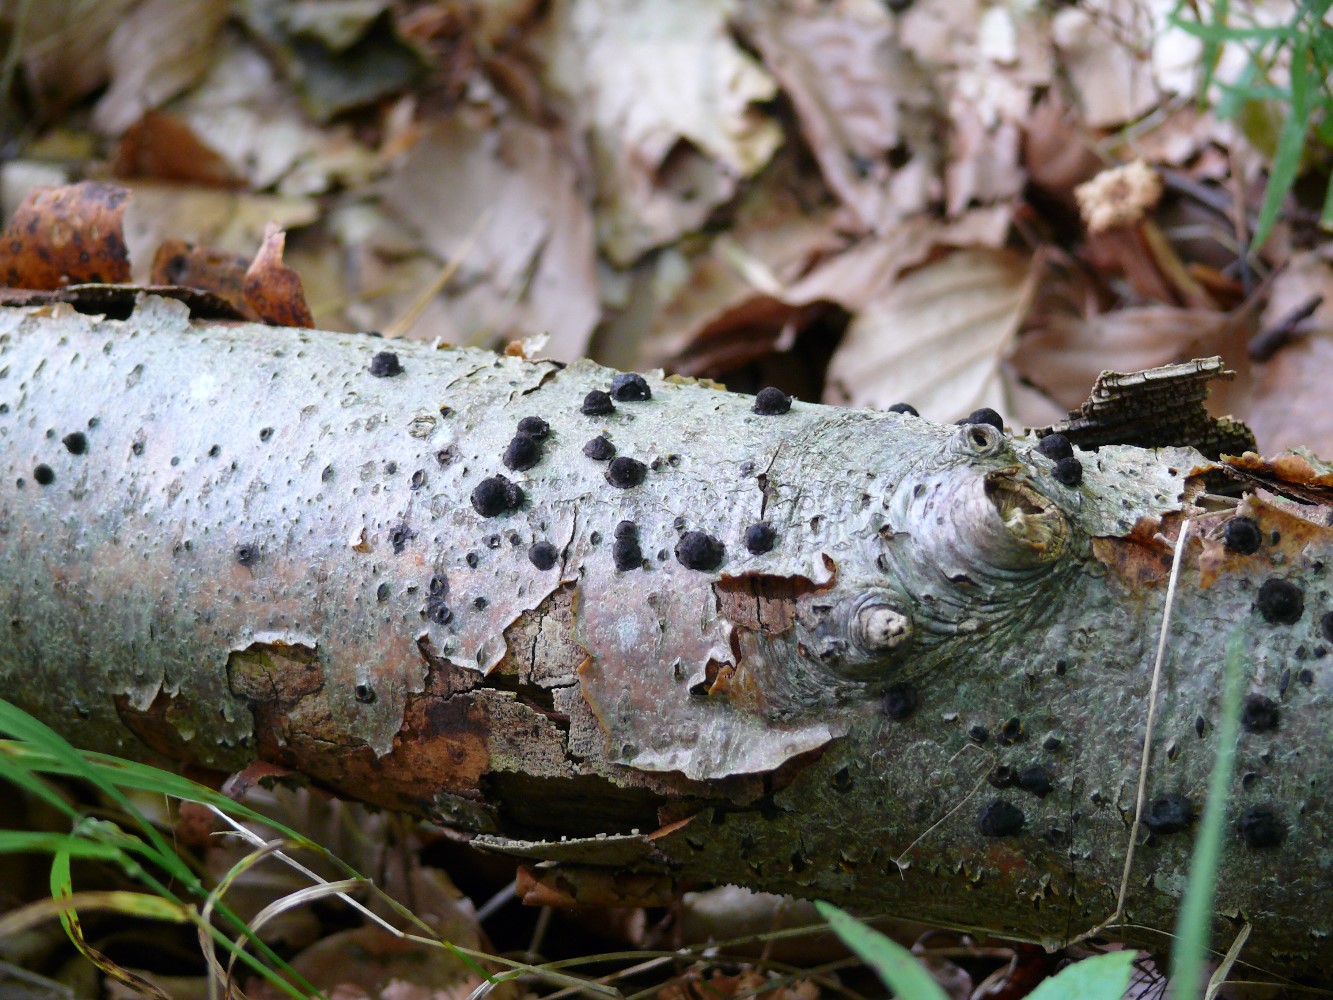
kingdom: Fungi
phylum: Ascomycota
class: Sordariomycetes
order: Xylariales
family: Hypoxylaceae
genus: Hypoxylon
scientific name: Hypoxylon
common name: kulbær
